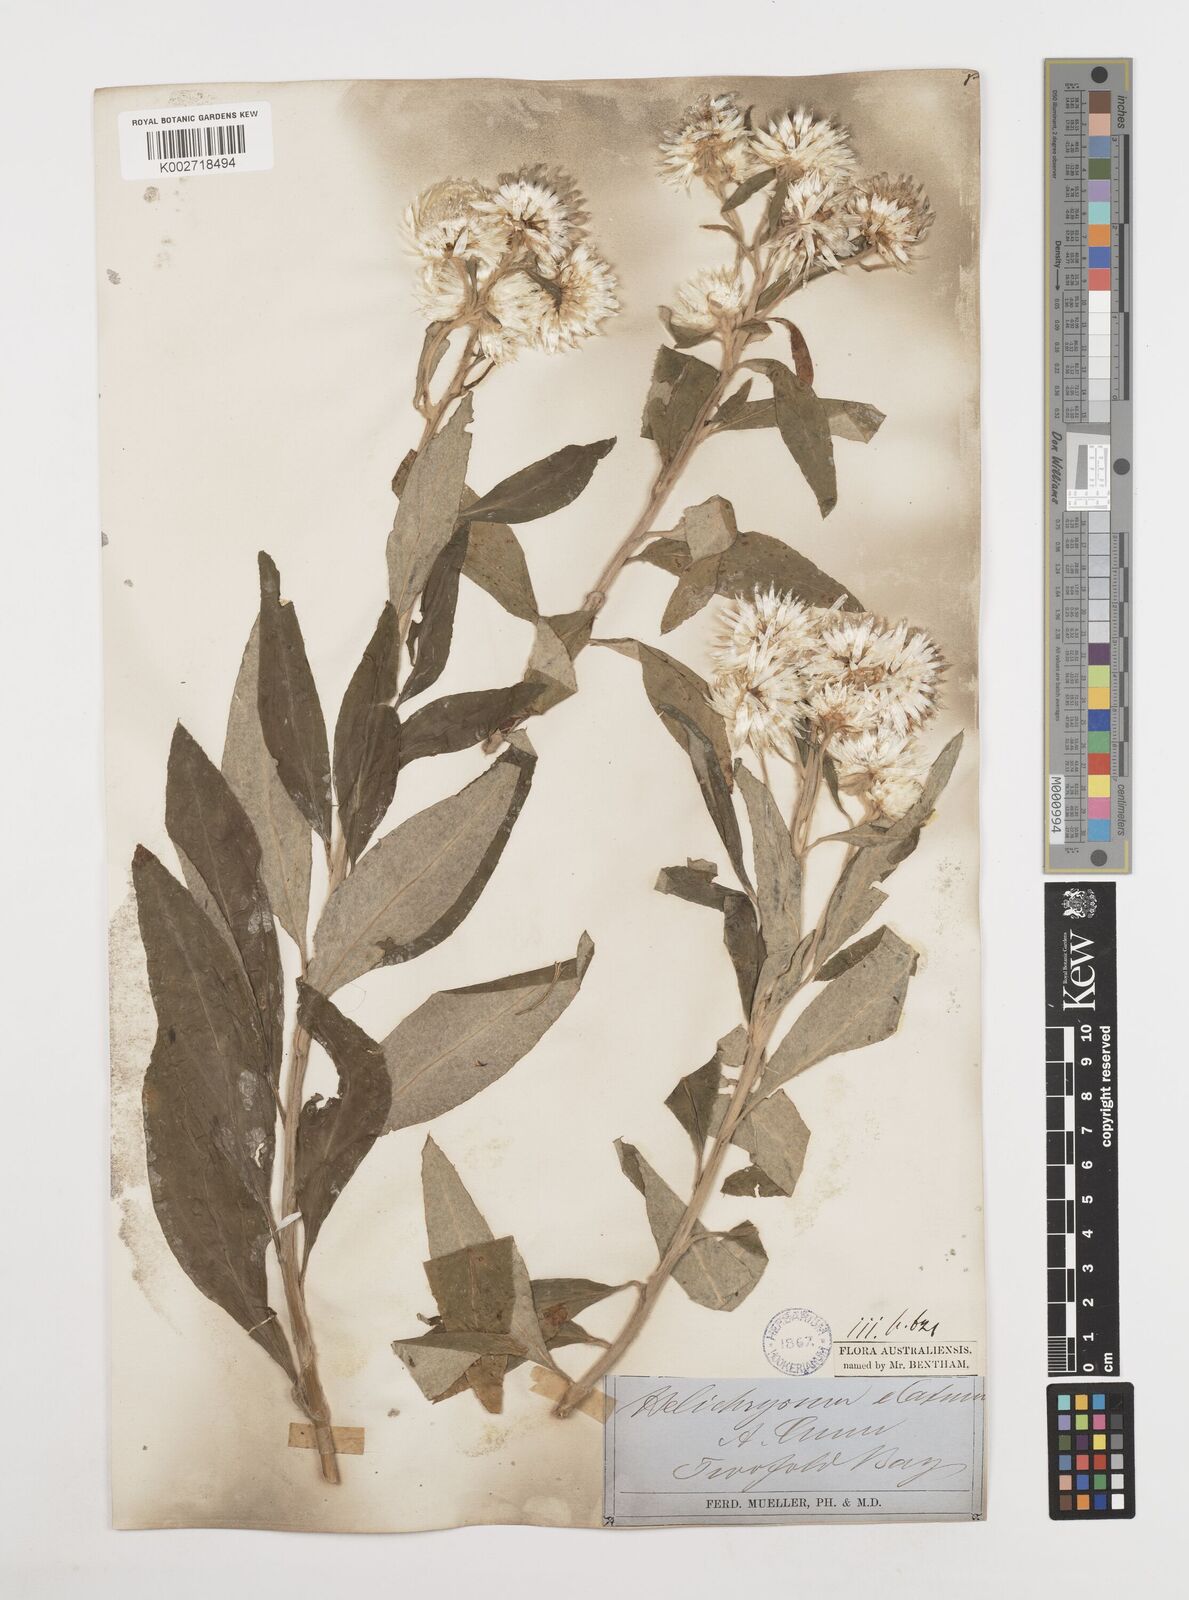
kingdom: Plantae
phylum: Tracheophyta
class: Magnoliopsida
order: Asterales
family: Asteraceae
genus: Leucozoma
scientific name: Leucozoma elatum
